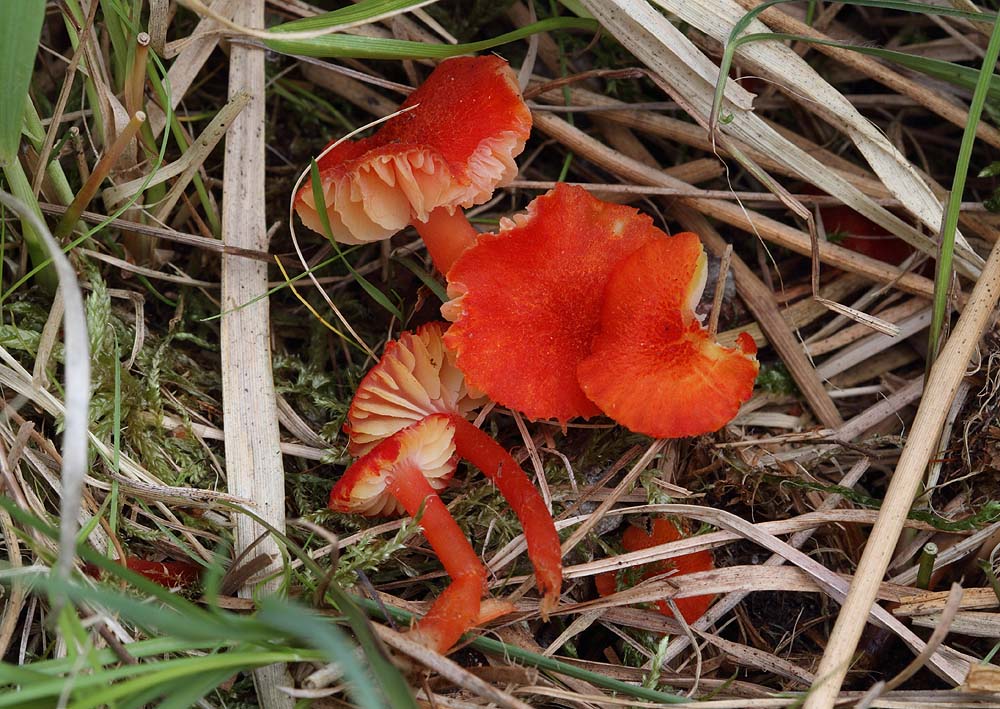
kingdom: Fungi
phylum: Basidiomycota
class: Agaricomycetes
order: Agaricales
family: Hygrophoraceae
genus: Hygrocybe
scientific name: Hygrocybe helobia
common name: hvidløgs-vokshat
